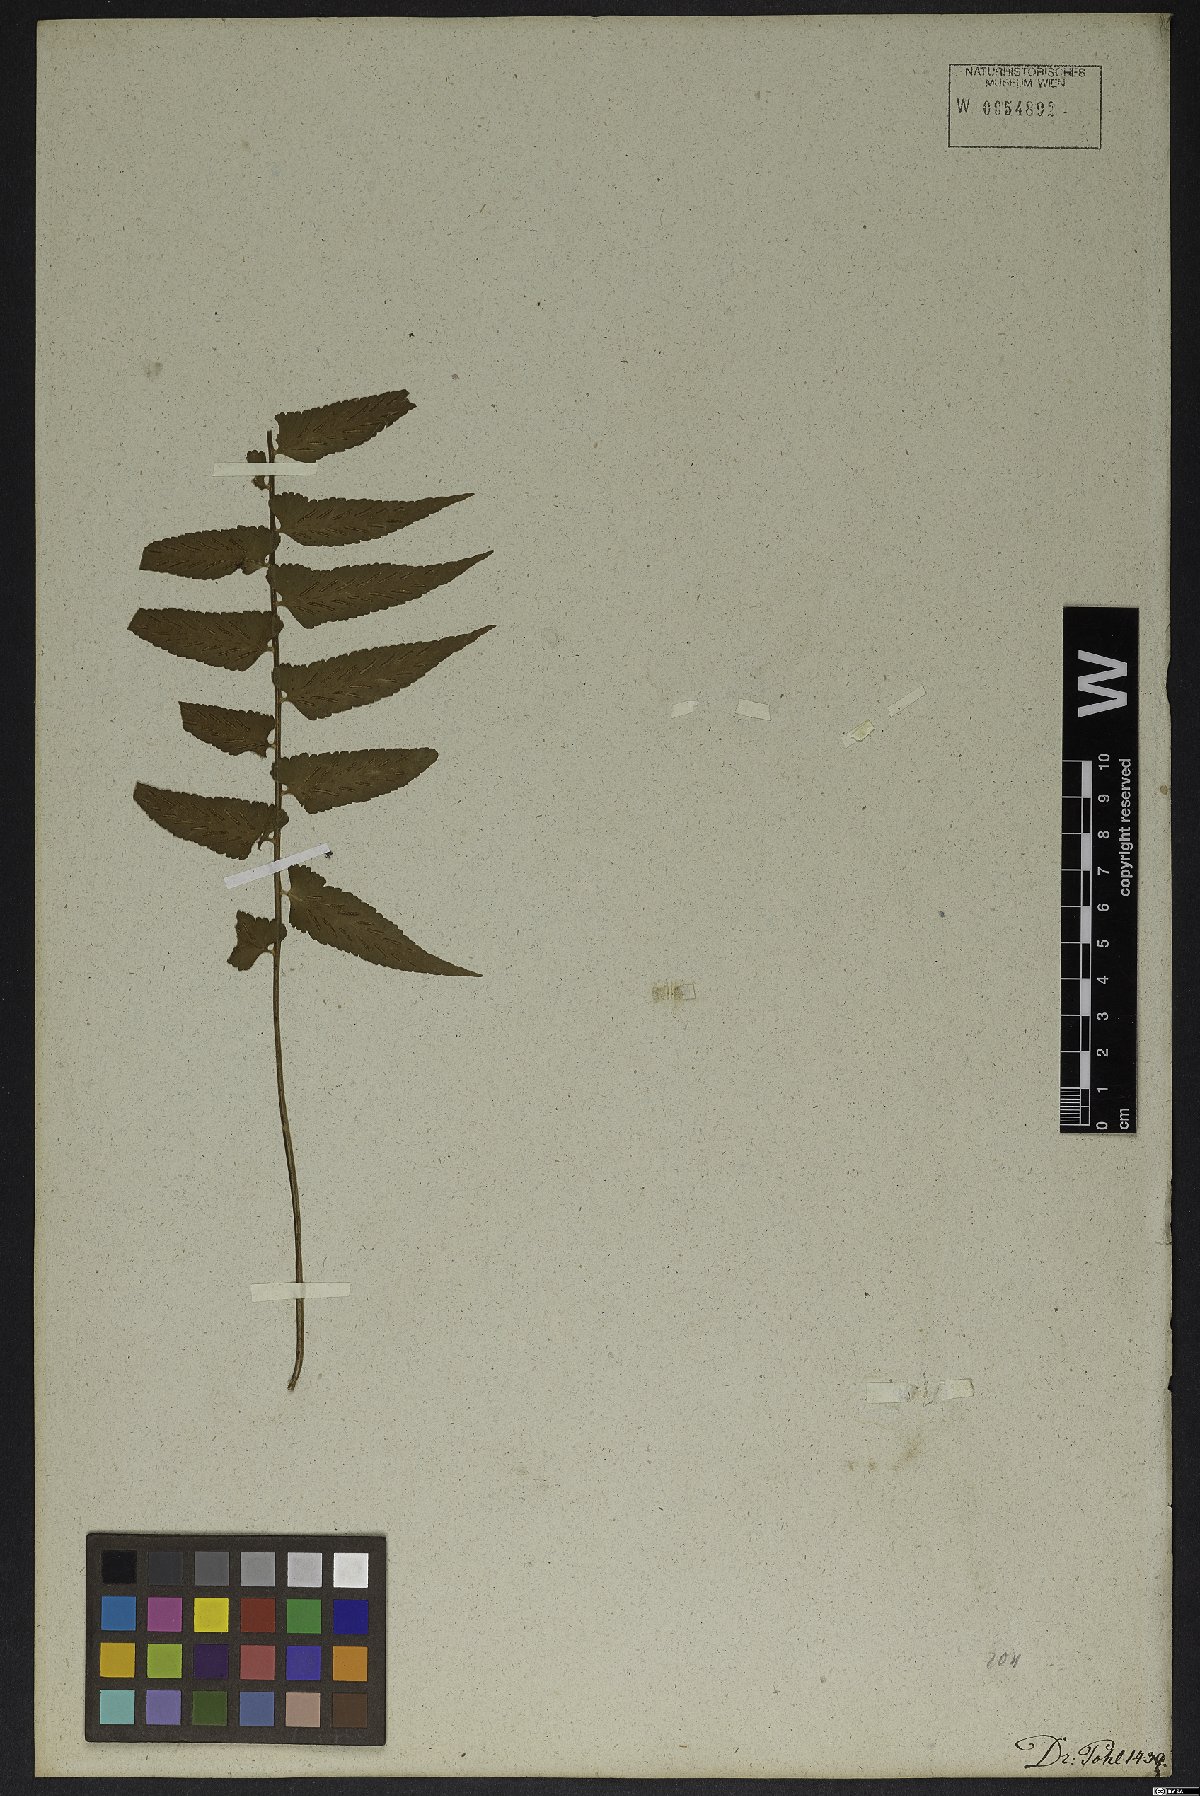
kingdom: Plantae
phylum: Tracheophyta
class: Polypodiopsida
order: Polypodiales
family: Aspleniaceae
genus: Asplenium
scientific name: Asplenium auriculatum
